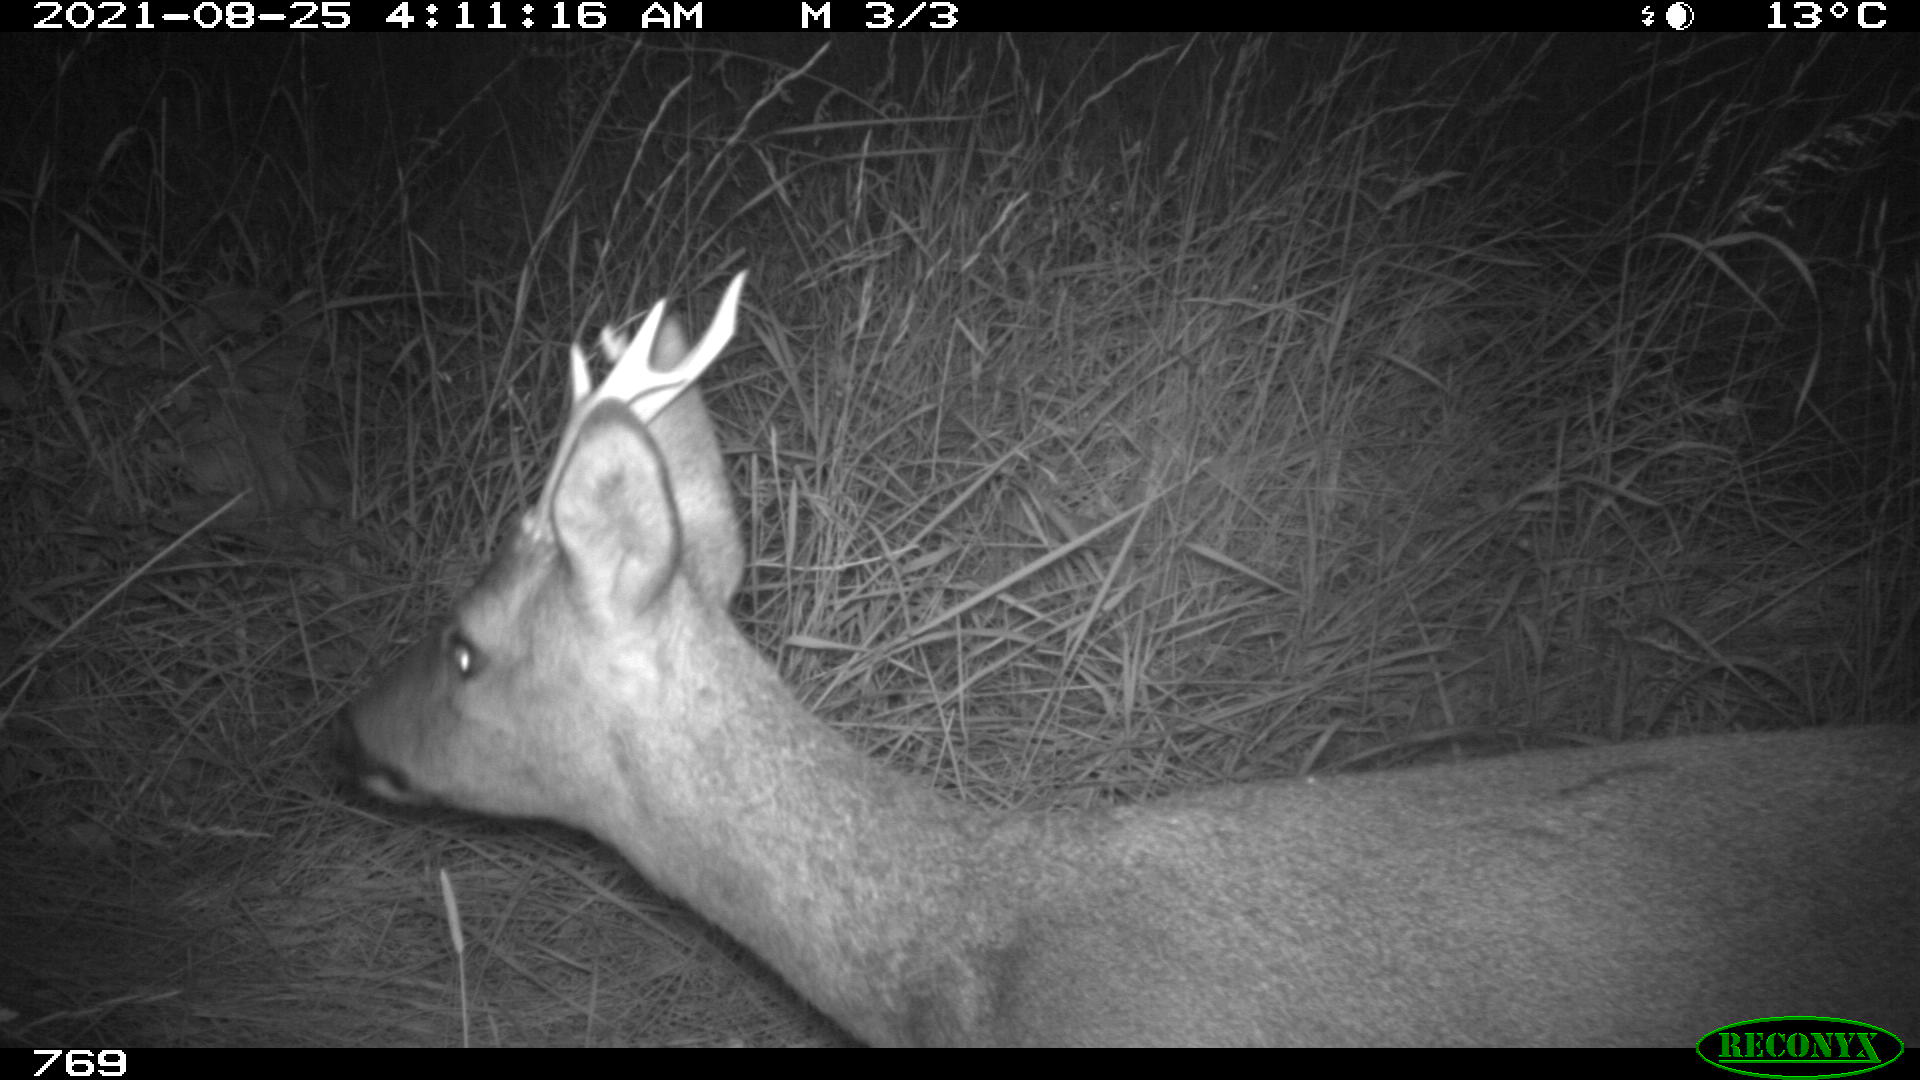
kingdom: Animalia
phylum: Chordata
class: Mammalia
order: Artiodactyla
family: Cervidae
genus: Capreolus
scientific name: Capreolus capreolus
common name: Western roe deer
